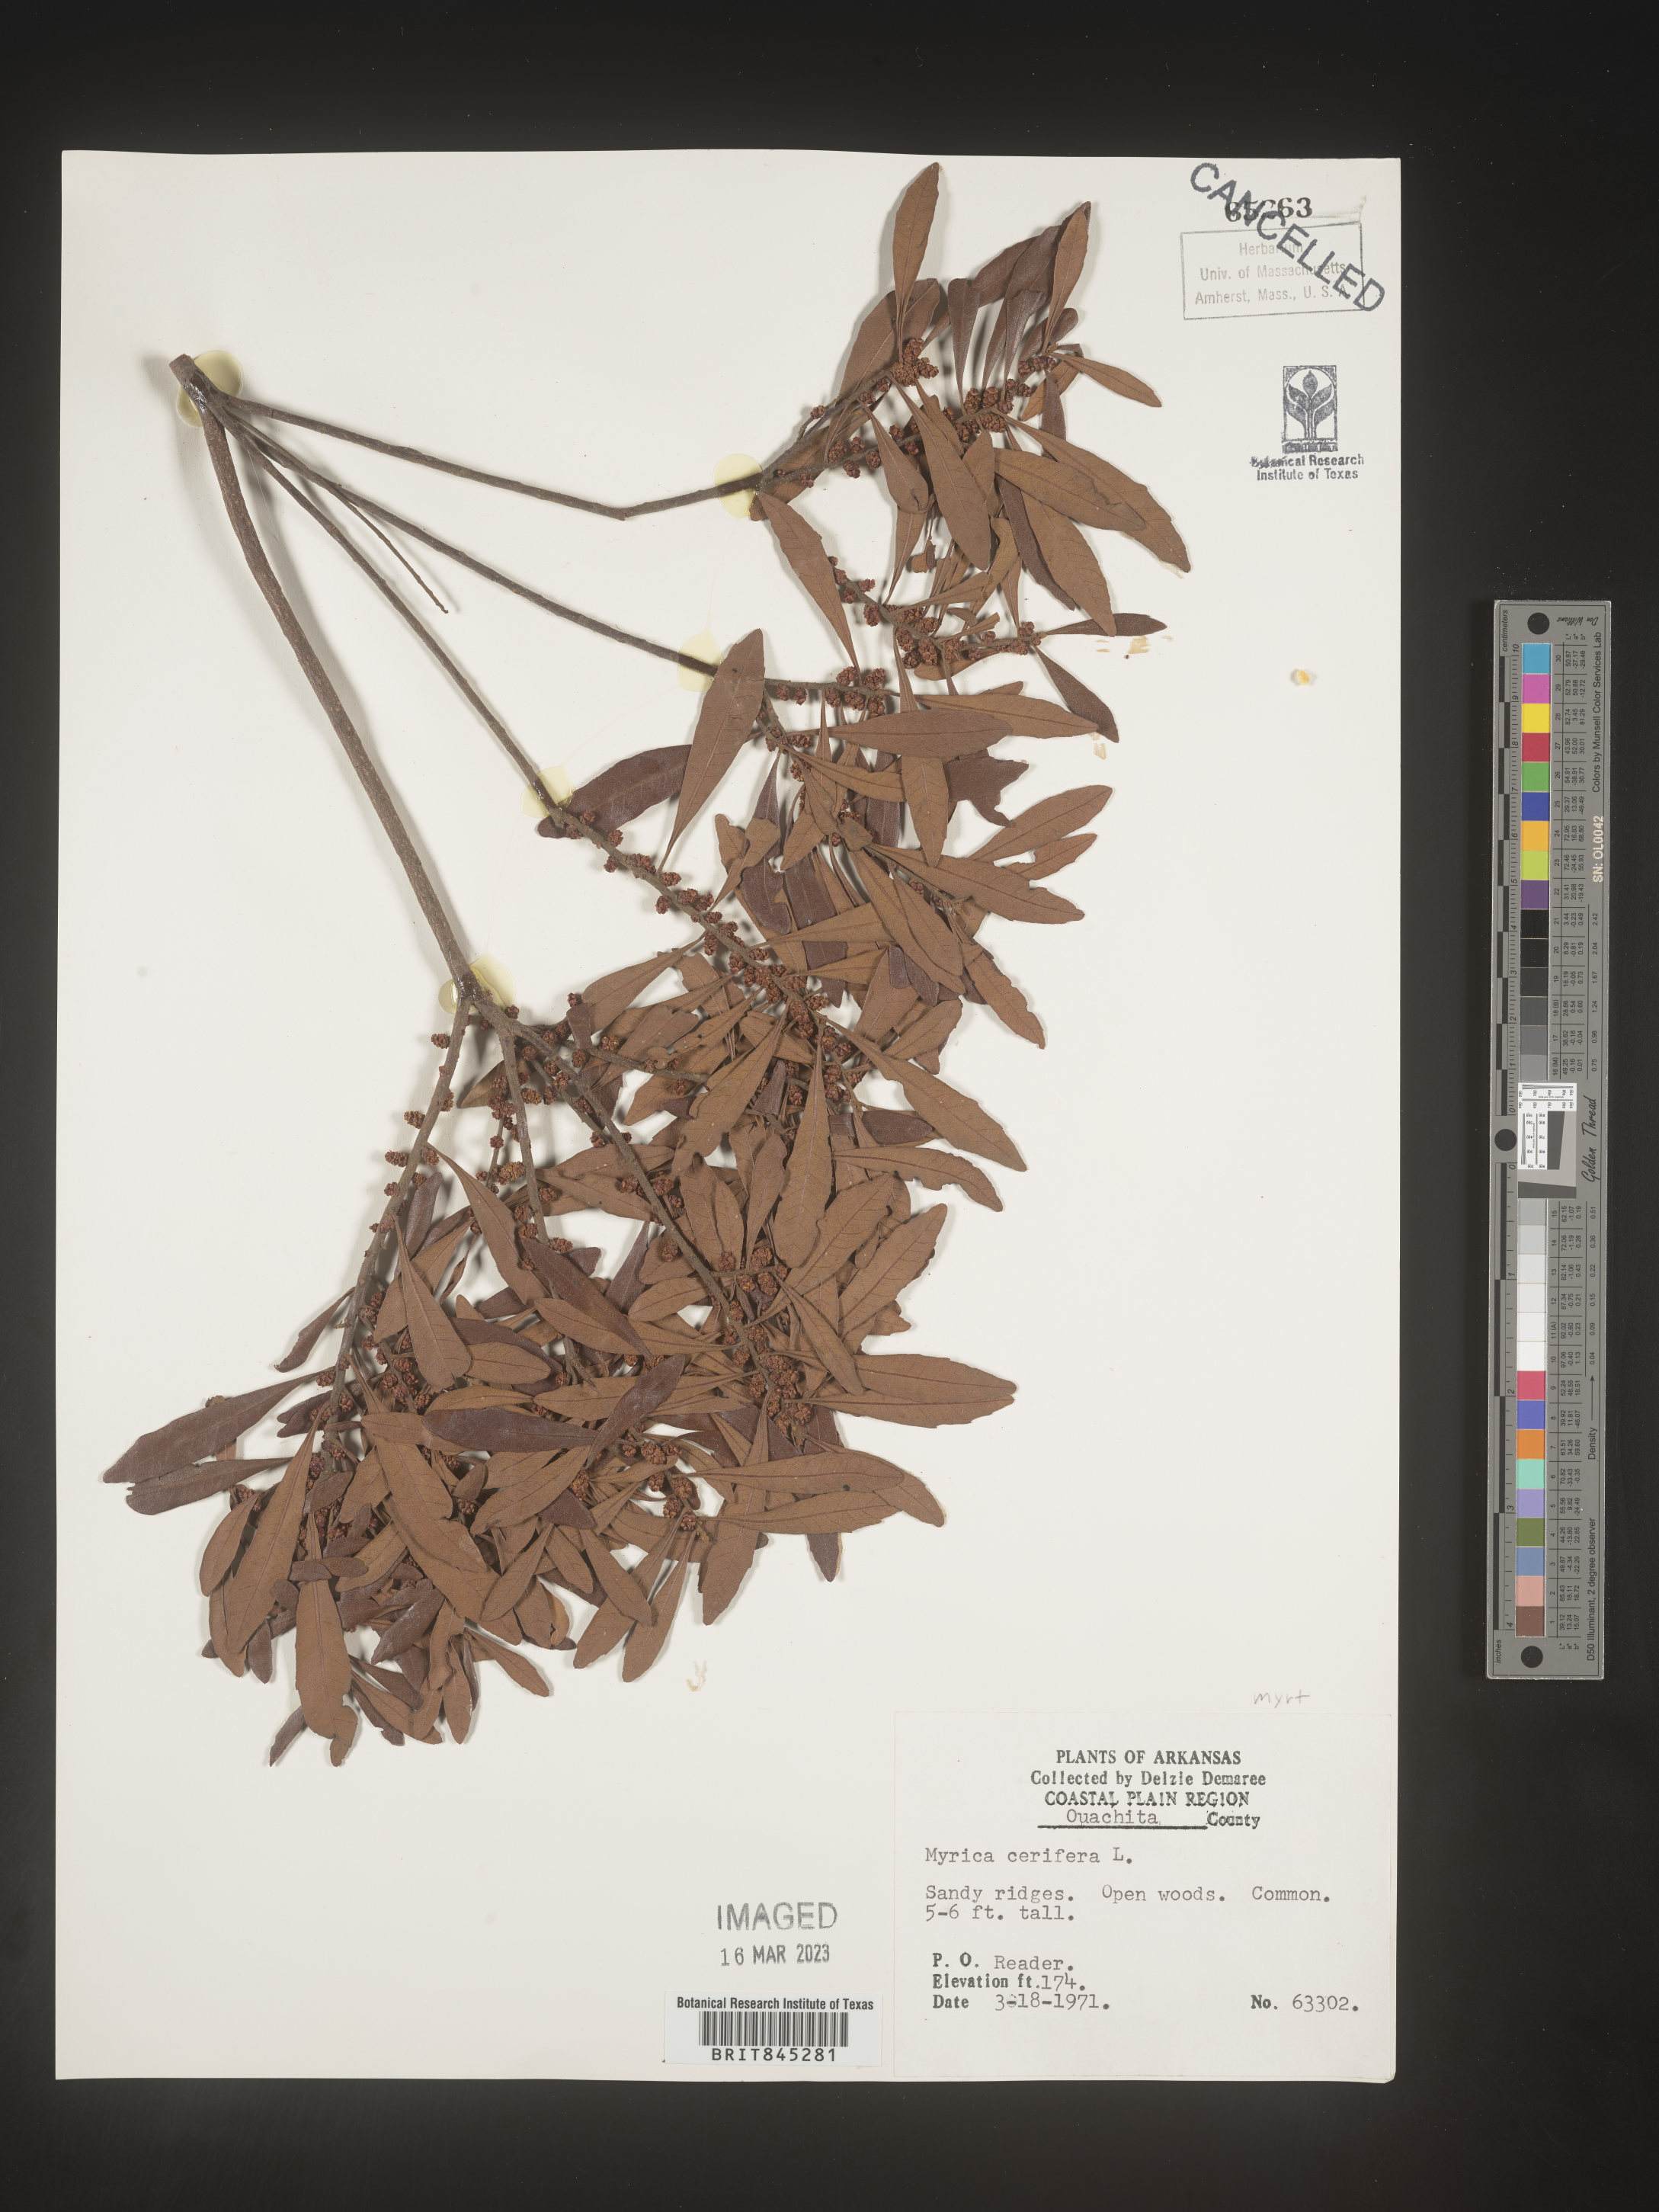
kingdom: Plantae
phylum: Tracheophyta
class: Magnoliopsida
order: Fagales
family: Myricaceae
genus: Morella
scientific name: Morella cerifera
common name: Wax myrtle
